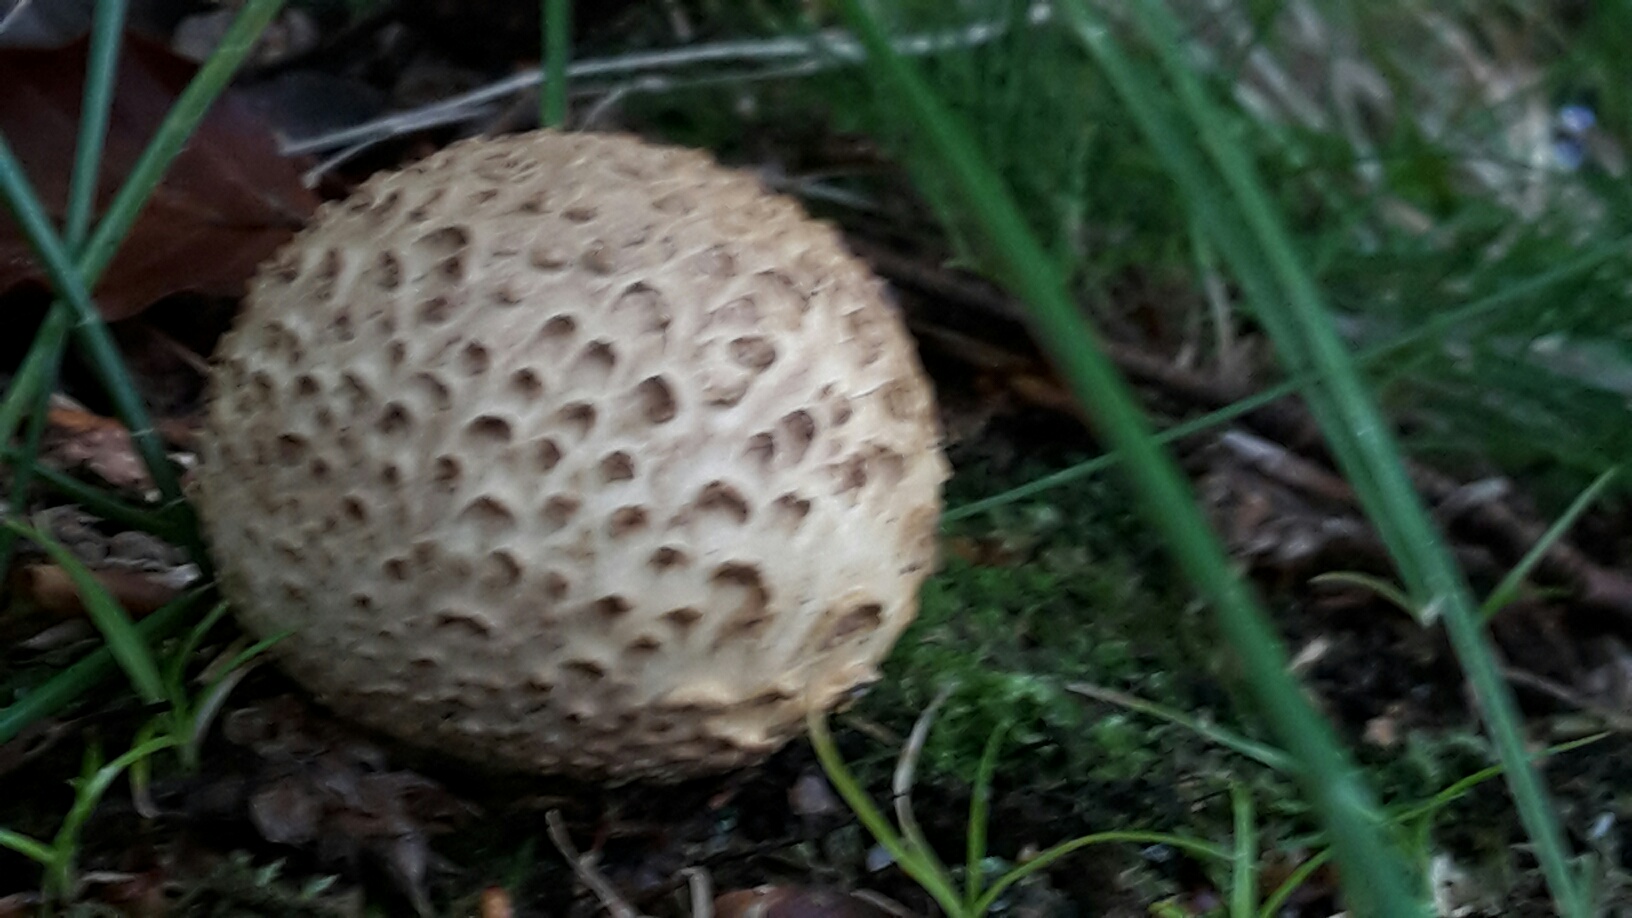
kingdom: Fungi
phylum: Basidiomycota
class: Agaricomycetes
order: Boletales
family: Sclerodermataceae
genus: Scleroderma
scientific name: Scleroderma citrinum
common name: almindelig bruskbold
